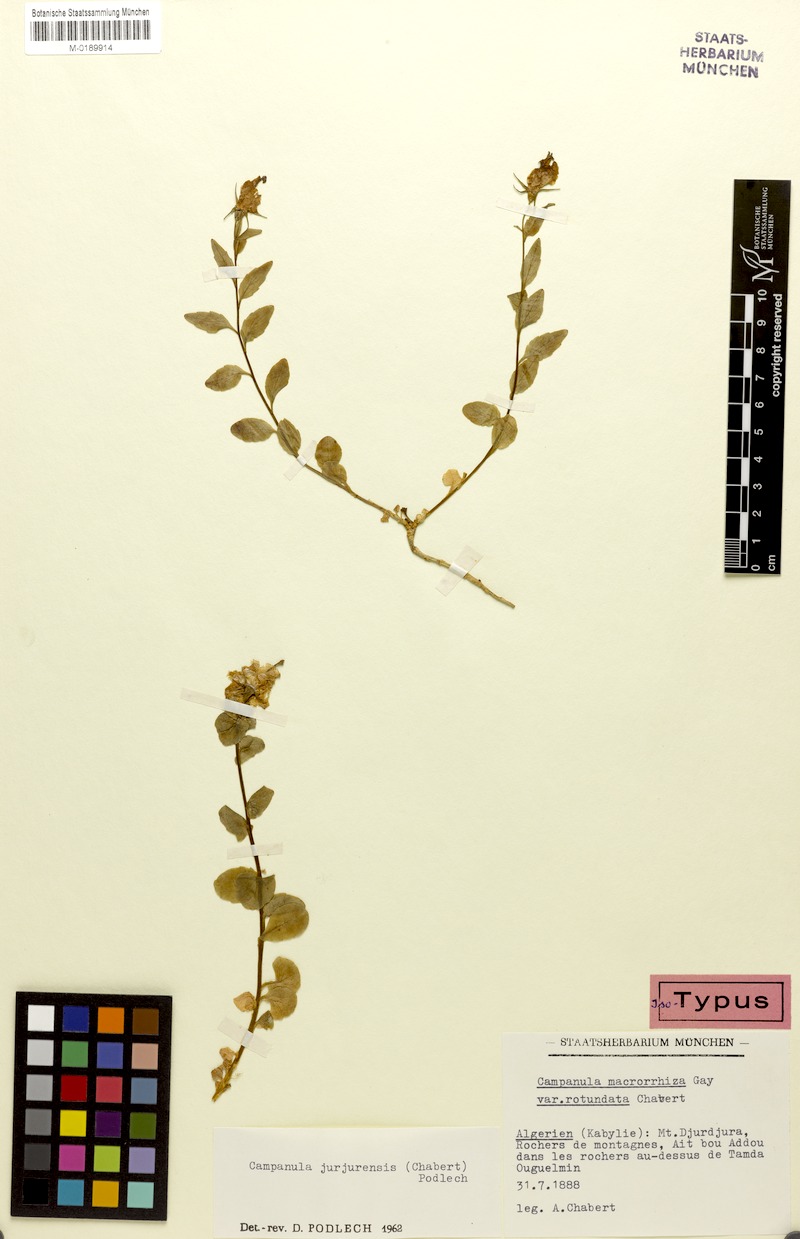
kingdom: Plantae
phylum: Tracheophyta
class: Magnoliopsida
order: Asterales
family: Campanulaceae
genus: Campanula
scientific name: Campanula jurjurensis
